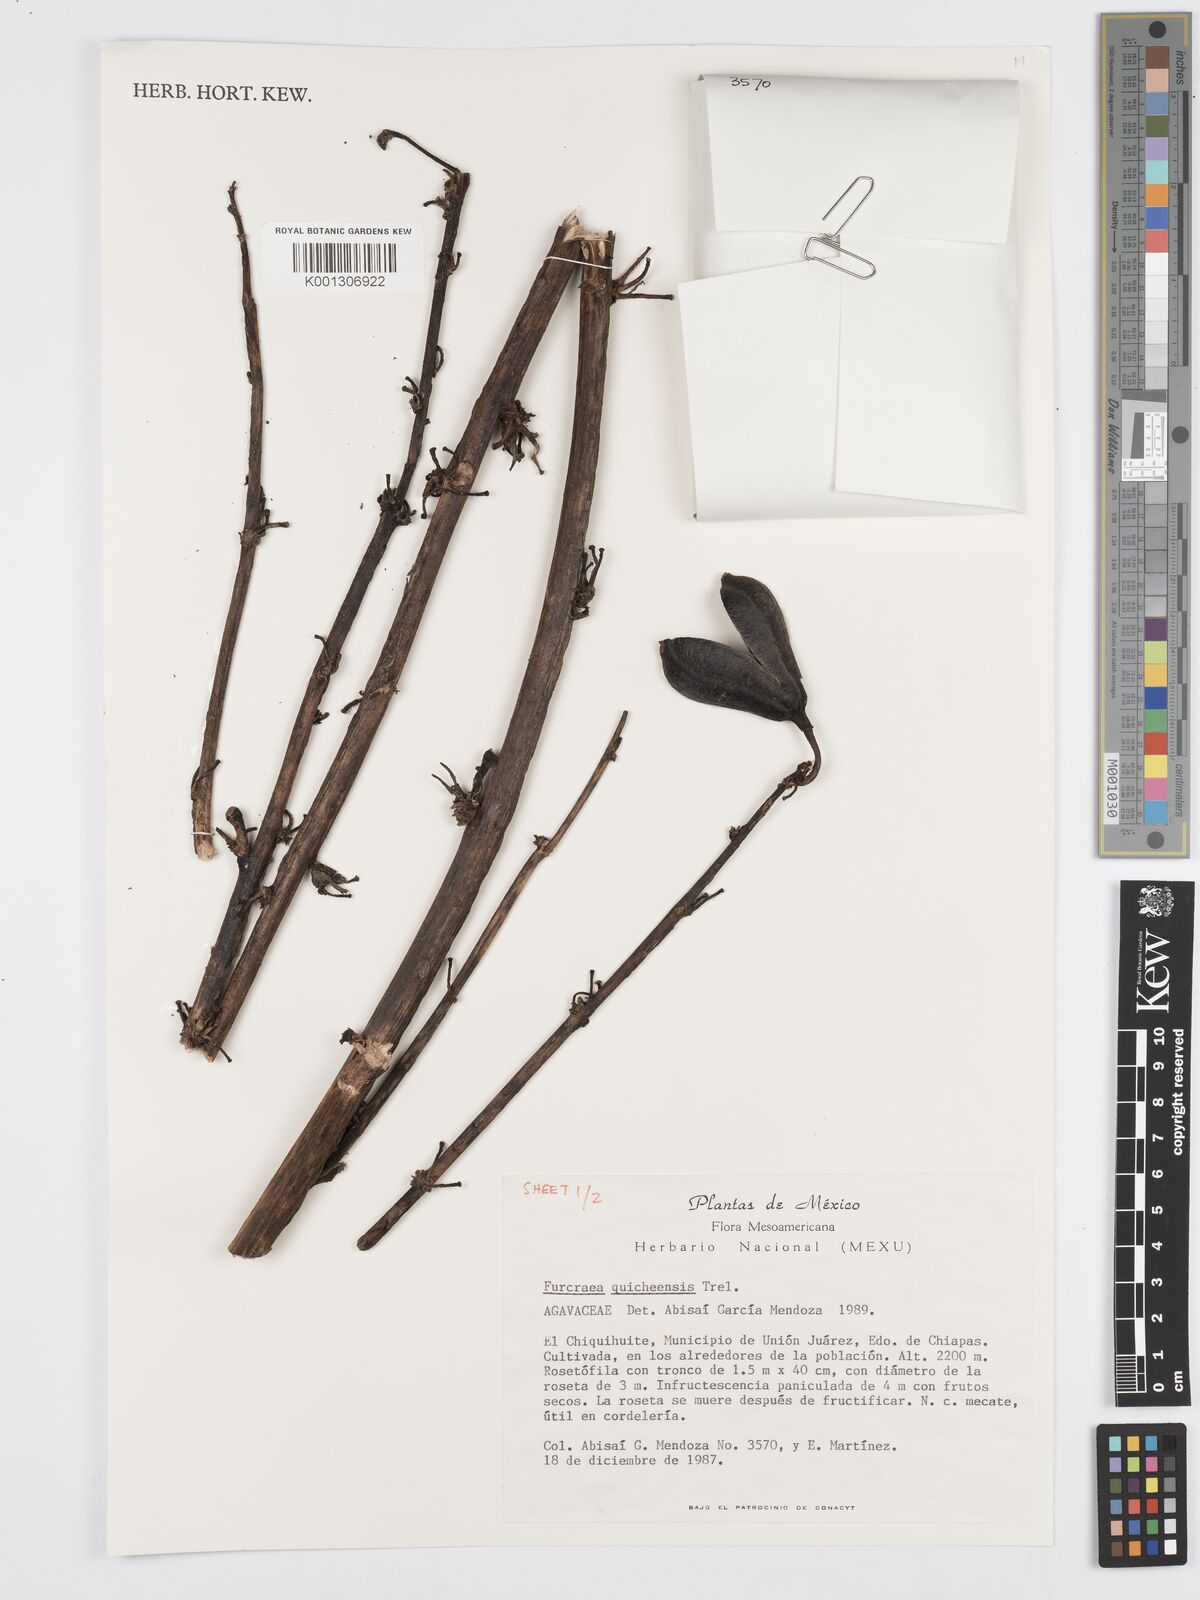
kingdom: Plantae
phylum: Tracheophyta
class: Liliopsida
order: Asparagales
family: Asparagaceae
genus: Furcraea
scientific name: Furcraea quicheensis
